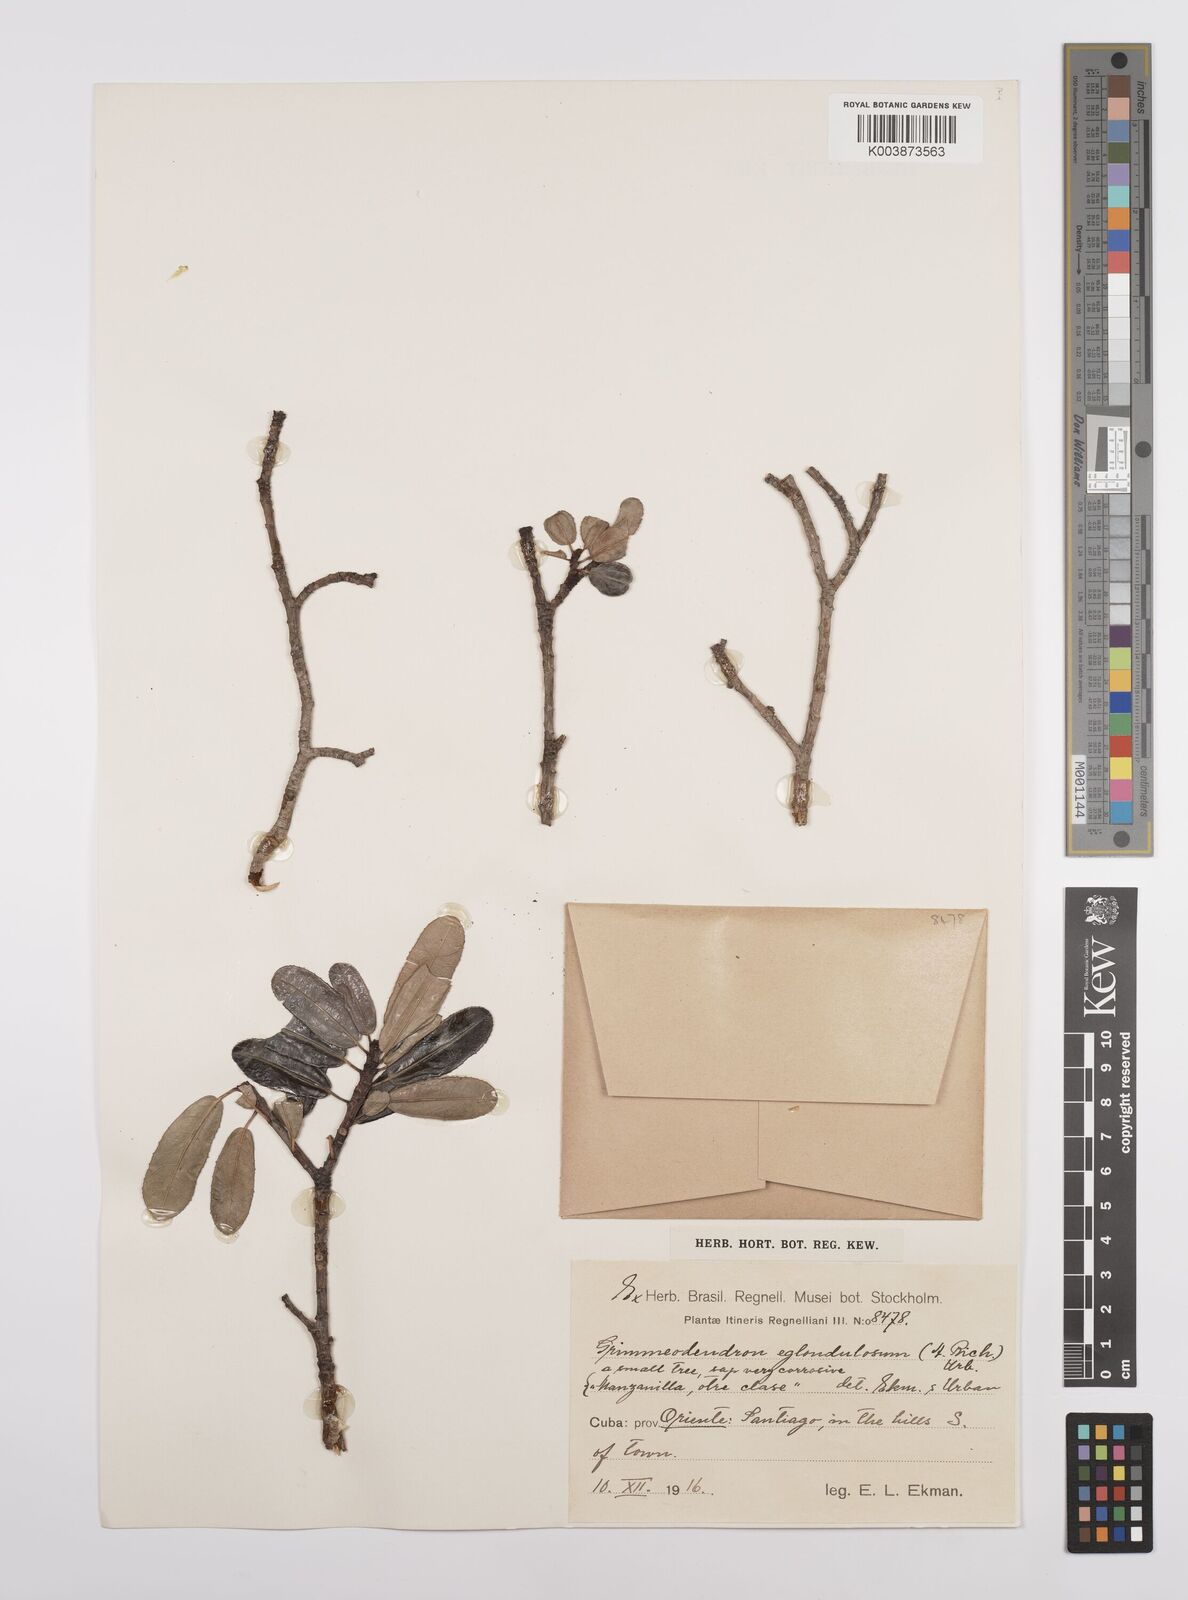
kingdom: Plantae
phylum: Tracheophyta
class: Magnoliopsida
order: Malpighiales
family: Euphorbiaceae
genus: Grimmeodendron
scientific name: Grimmeodendron eglandulosum
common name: Grimm’s tree
